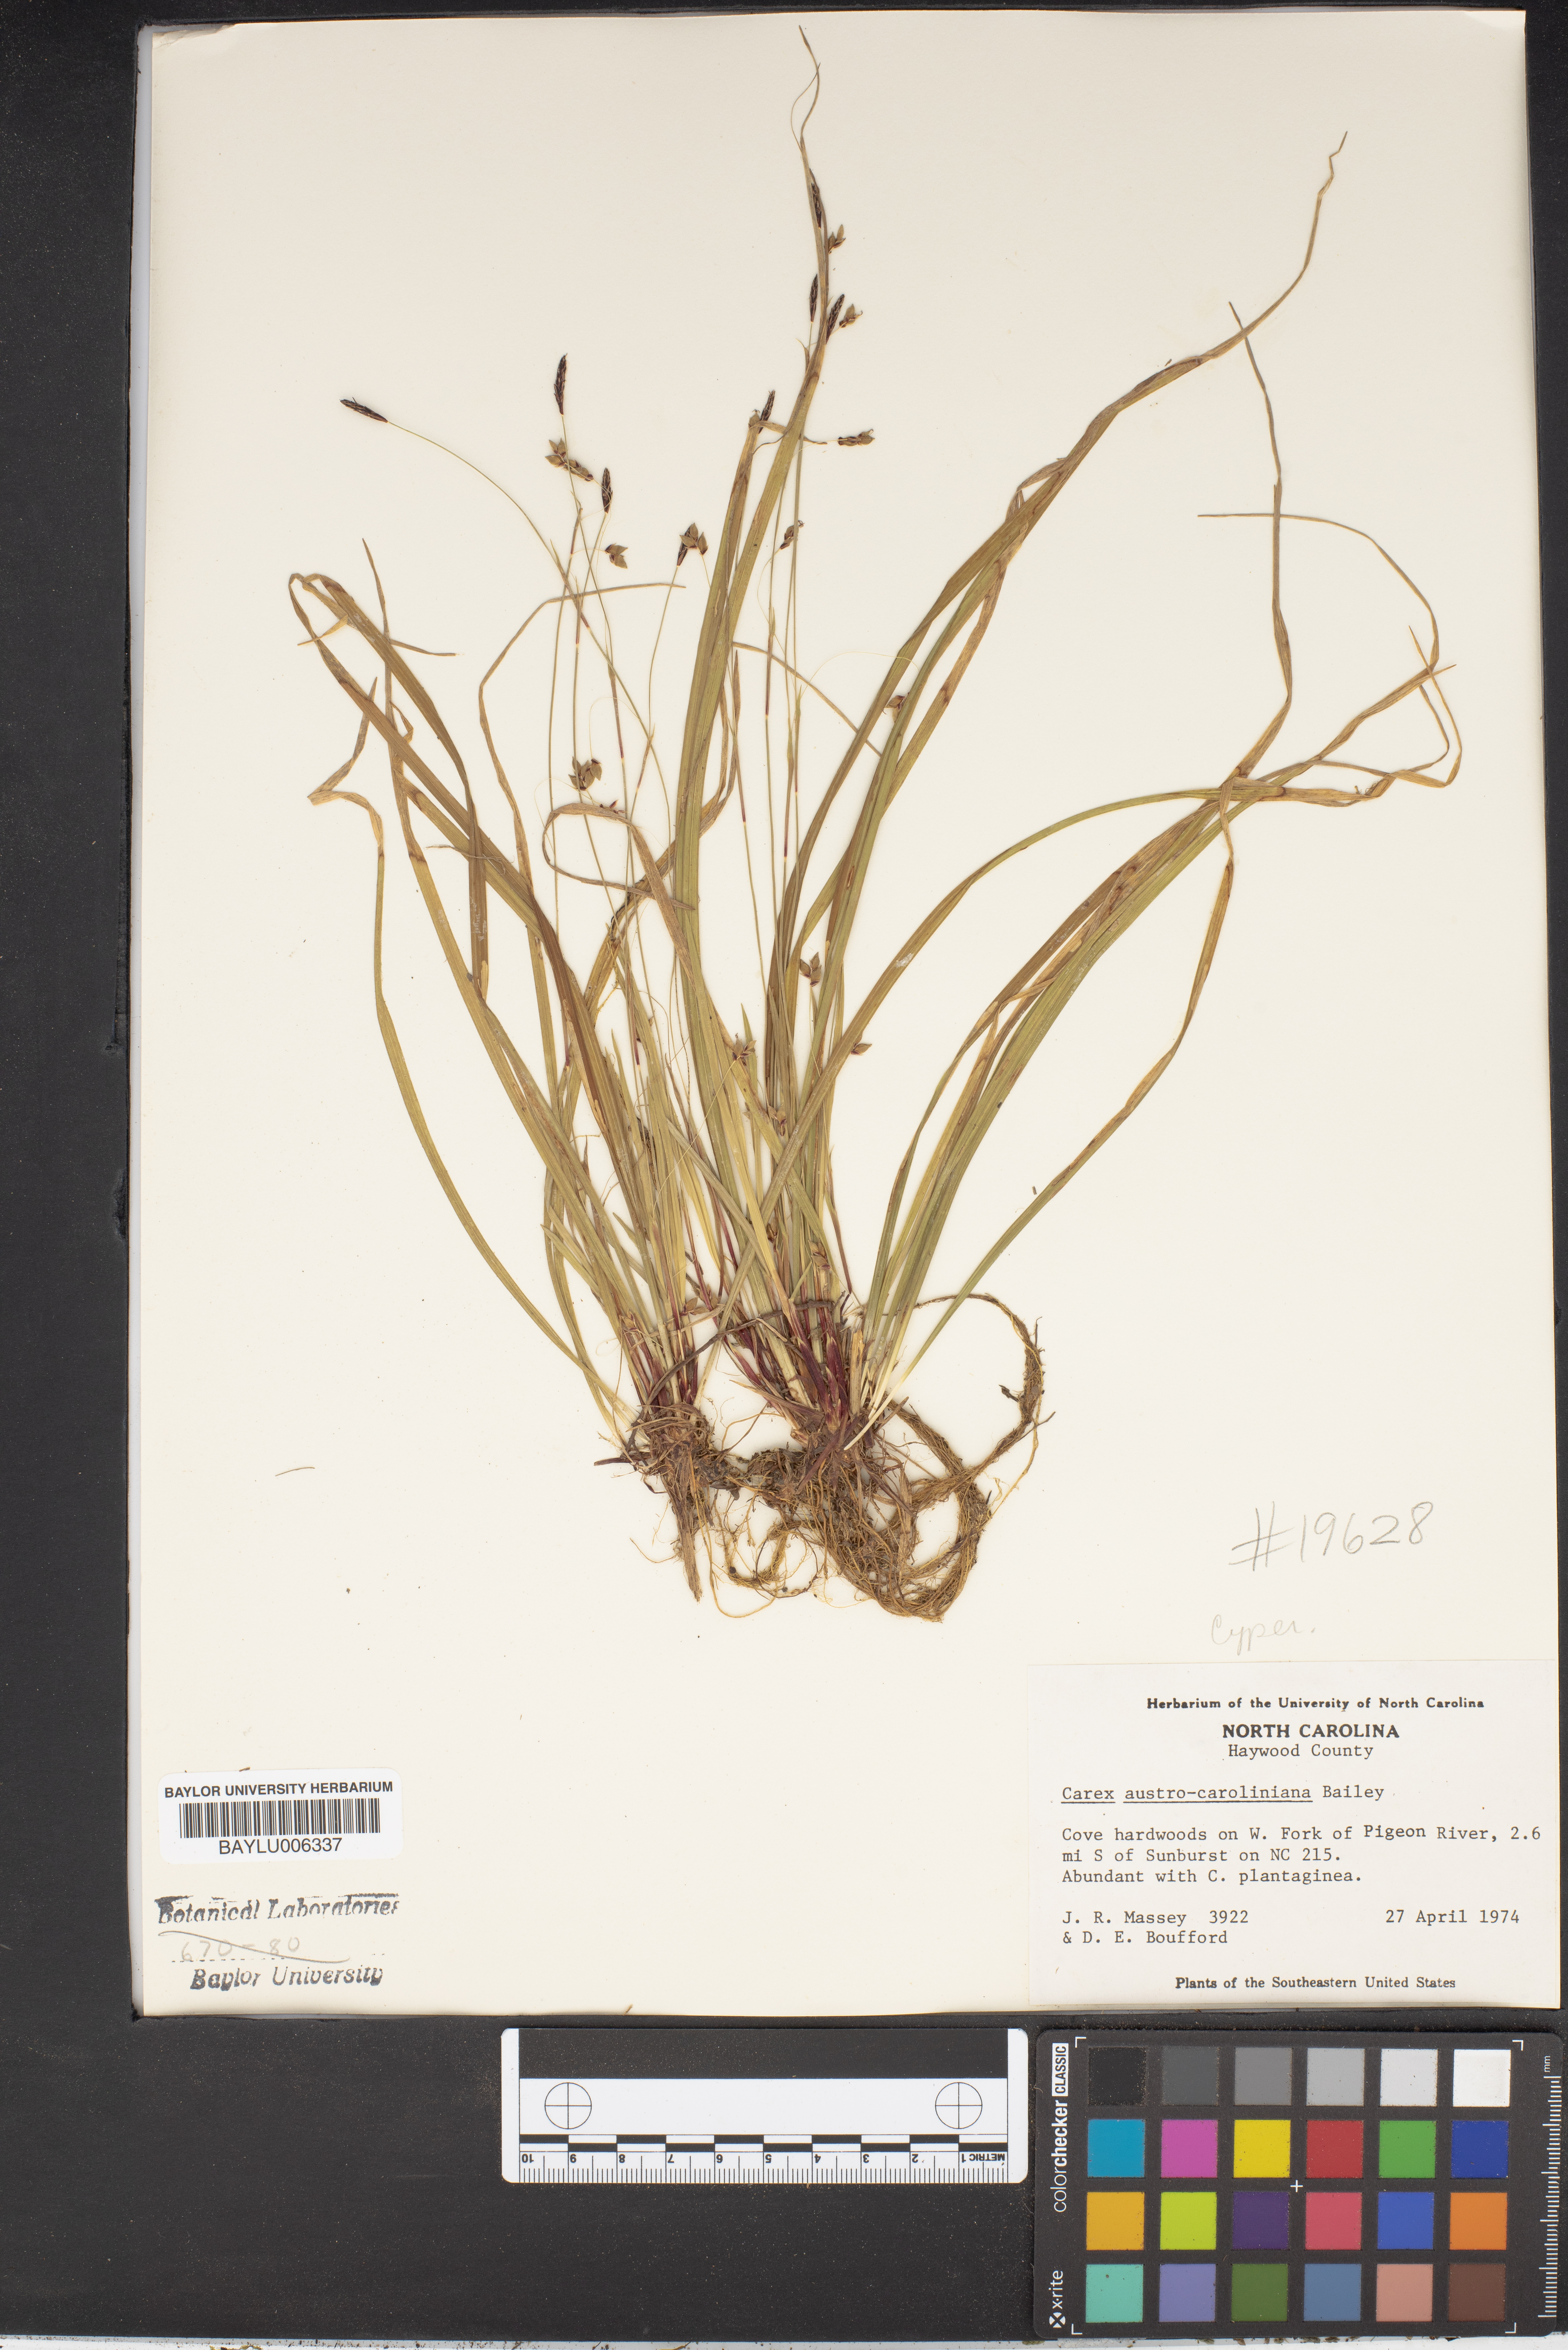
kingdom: Plantae
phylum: Tracheophyta
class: Liliopsida
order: Poales
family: Cyperaceae
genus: Carex
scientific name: Carex austrocaroliniana
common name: Tarheel sedge
